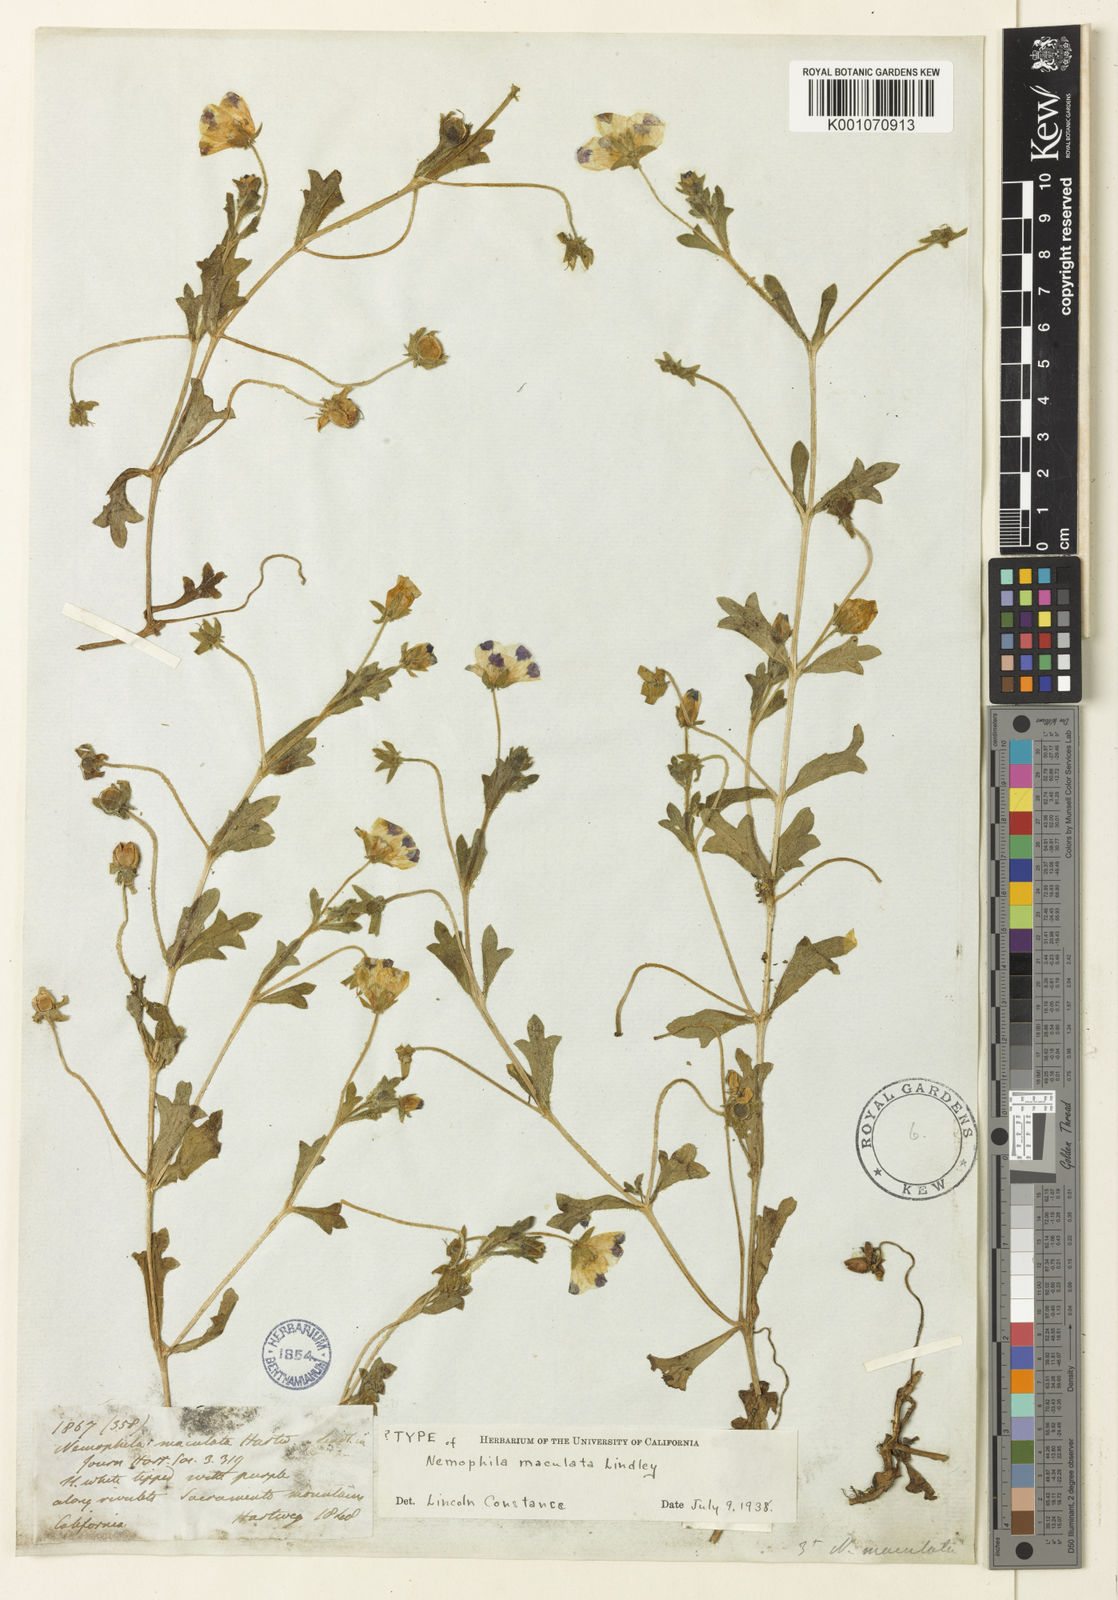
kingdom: Plantae
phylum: Tracheophyta
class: Magnoliopsida
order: Boraginales
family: Hydrophyllaceae
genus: Nemophila
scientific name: Nemophila maculata
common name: Fivespot
